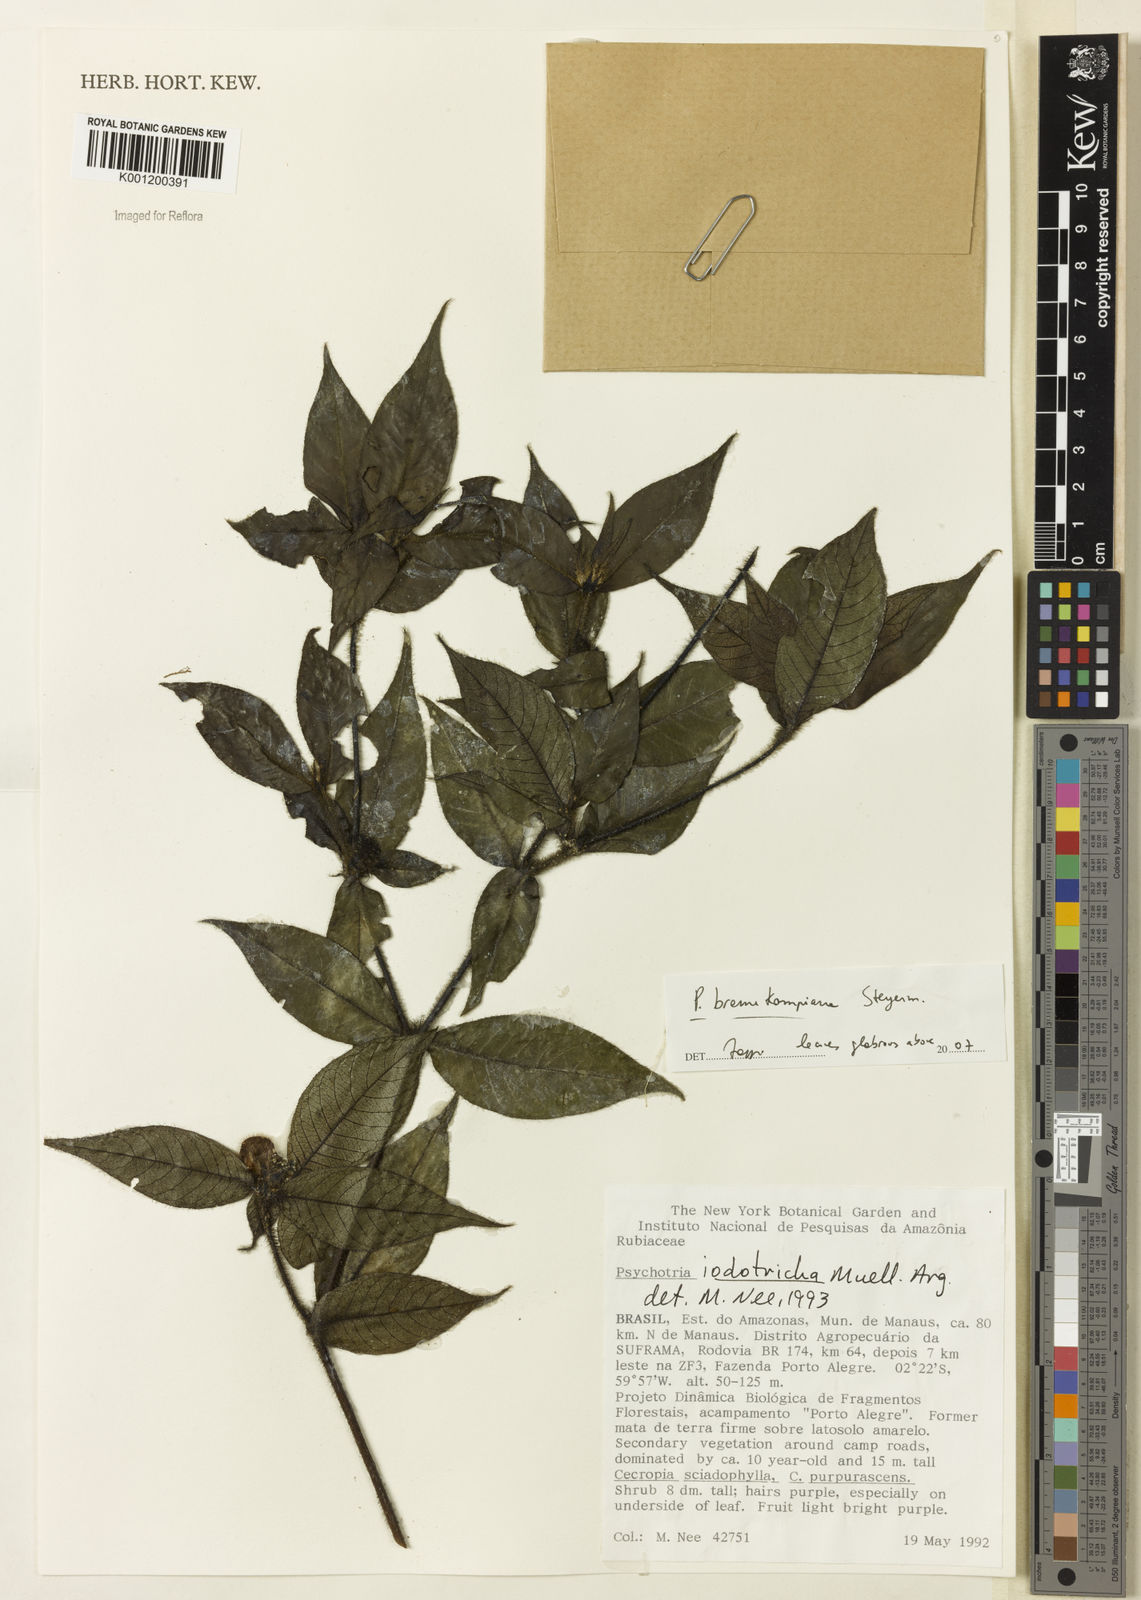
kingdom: Plantae
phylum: Tracheophyta
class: Magnoliopsida
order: Gentianales
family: Rubiaceae
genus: Palicourea
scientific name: Palicourea hirta
